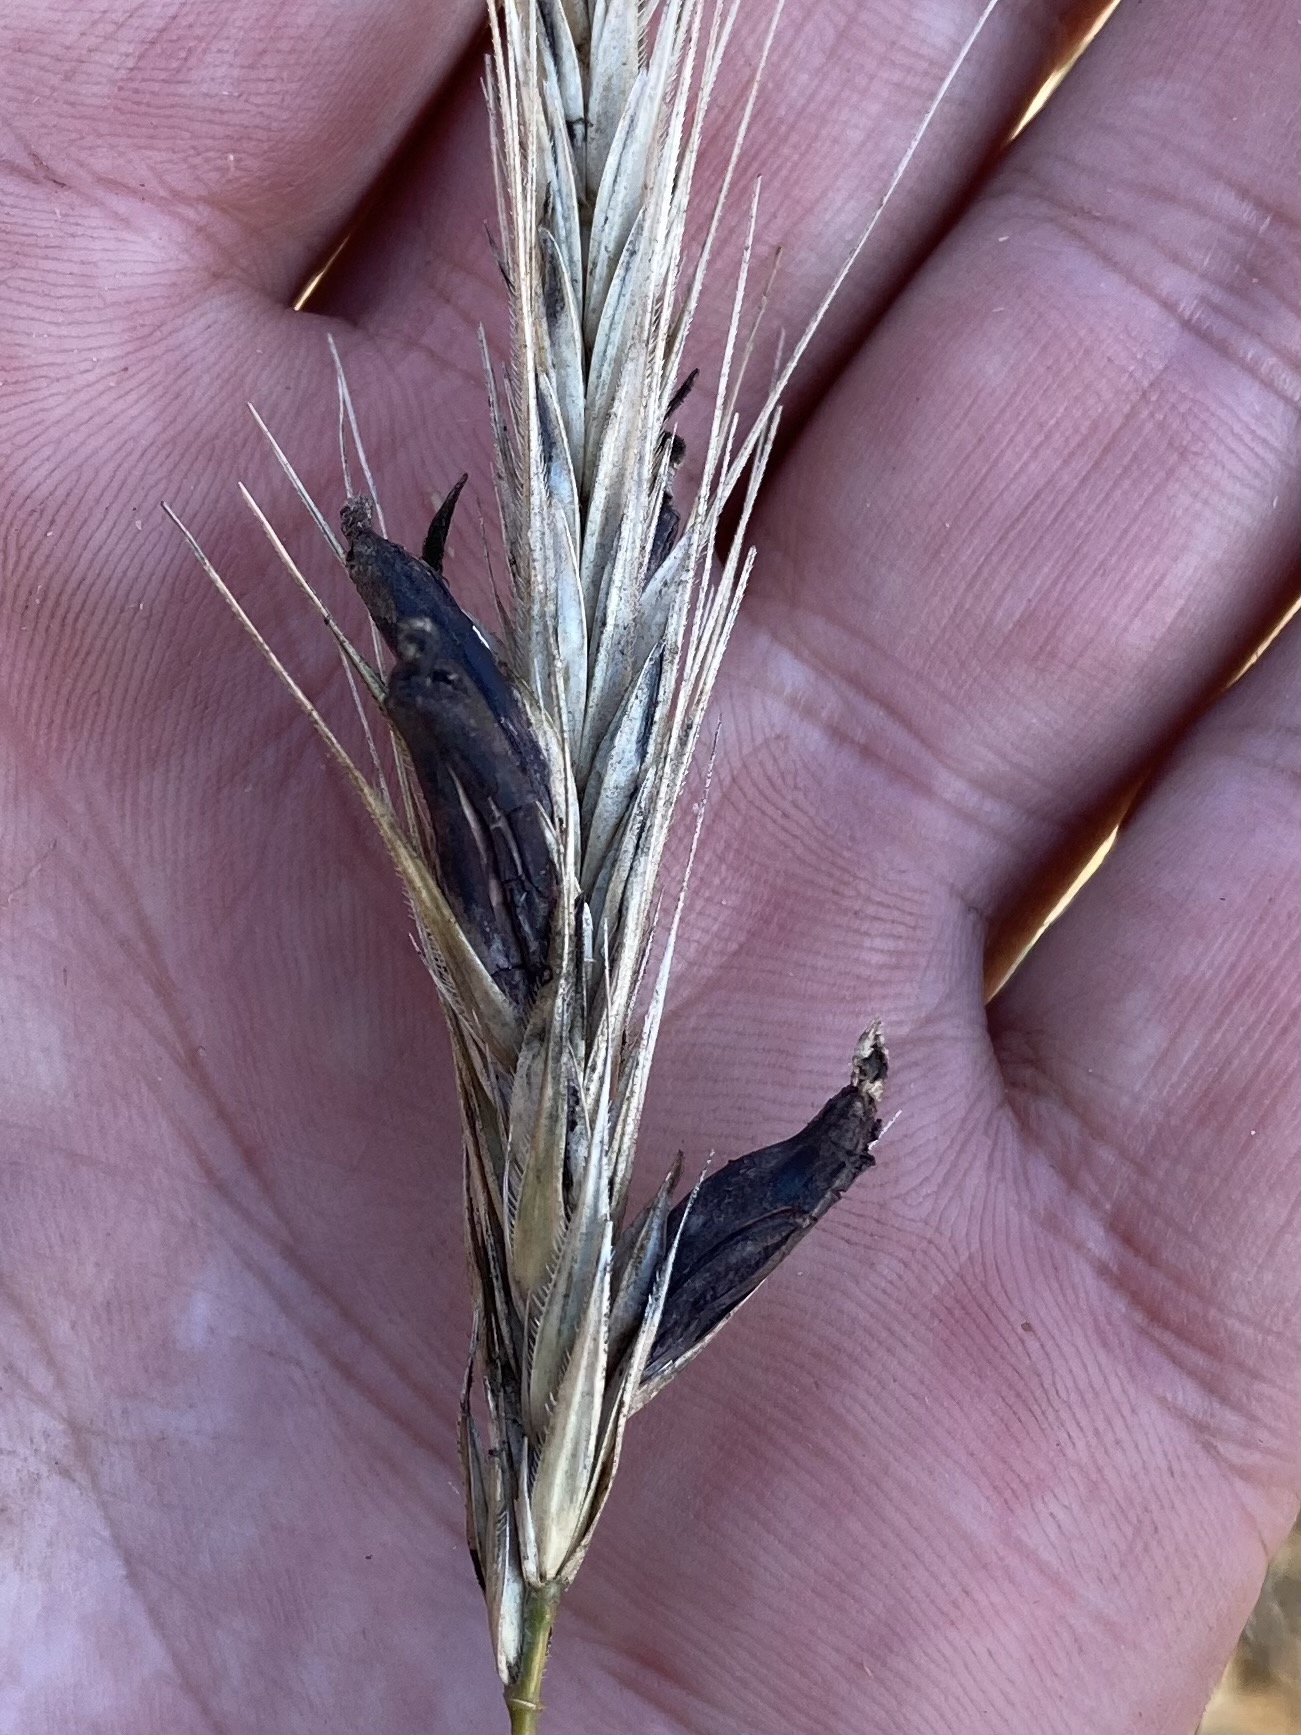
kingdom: Fungi
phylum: Ascomycota
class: Sordariomycetes
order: Hypocreales
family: Clavicipitaceae
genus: Claviceps
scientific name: Claviceps purpurea
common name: almindelig meldrøjer
